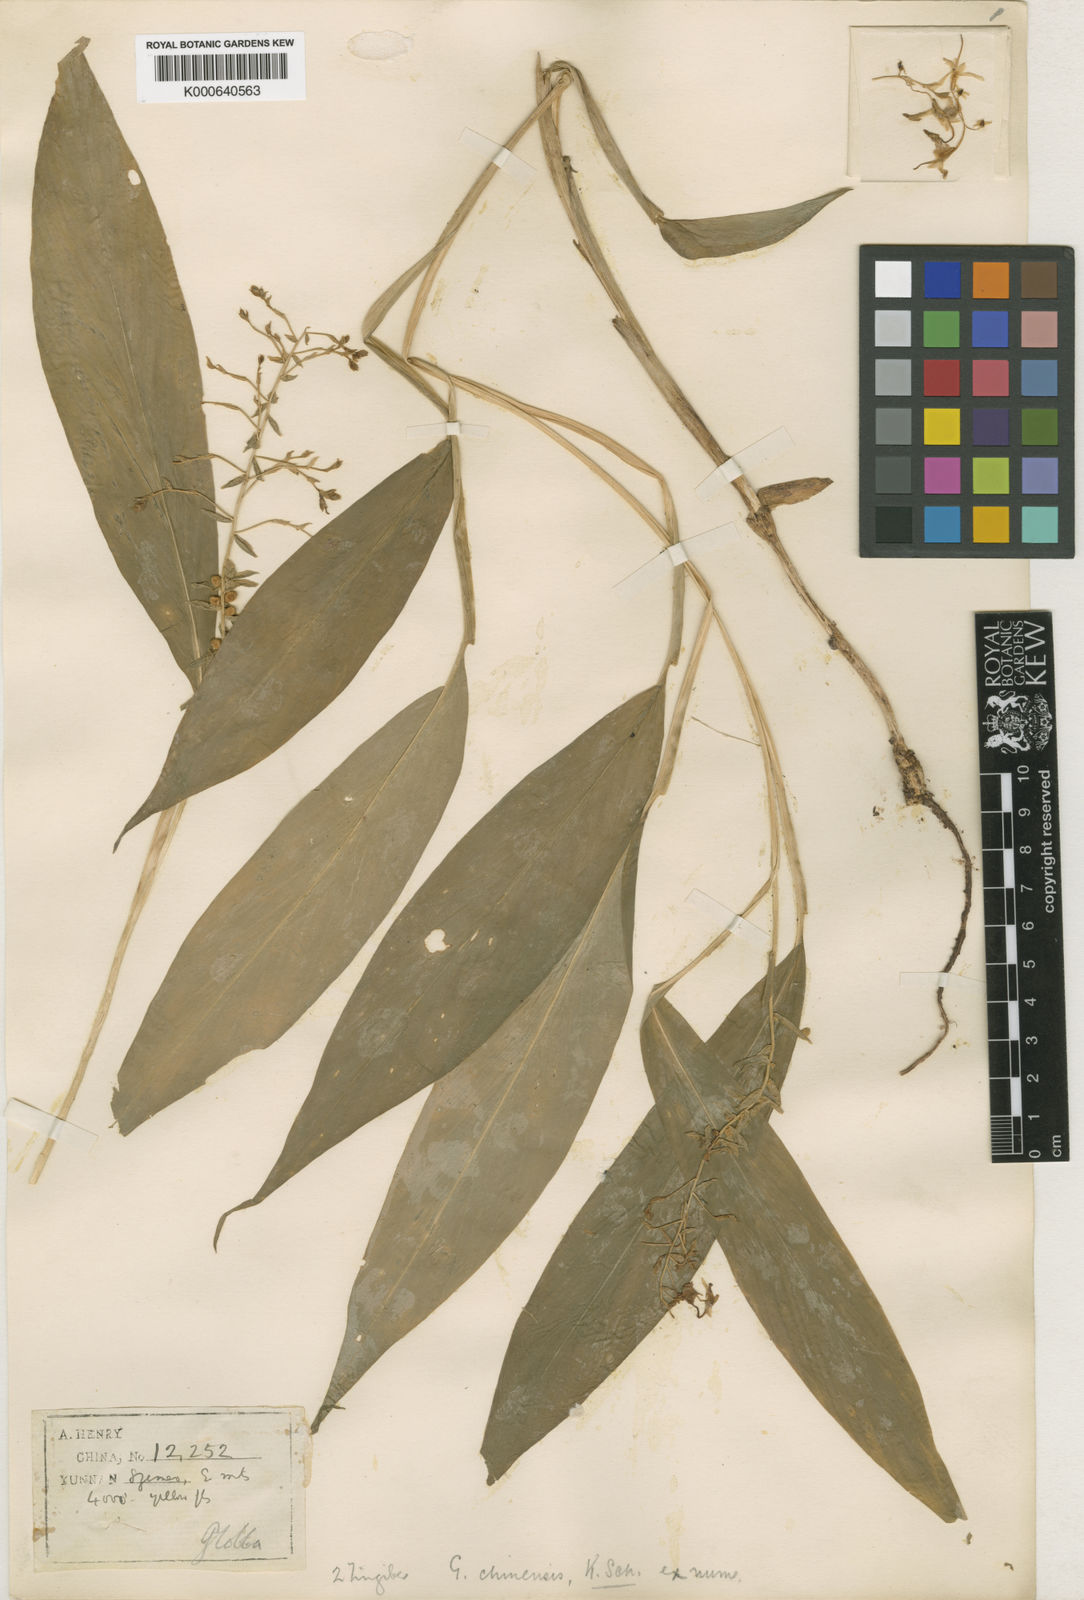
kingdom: Plantae
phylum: Tracheophyta
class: Liliopsida
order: Zingiberales
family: Zingiberaceae
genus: Globba
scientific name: Globba schomburgkii
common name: Dancing girl ginger
